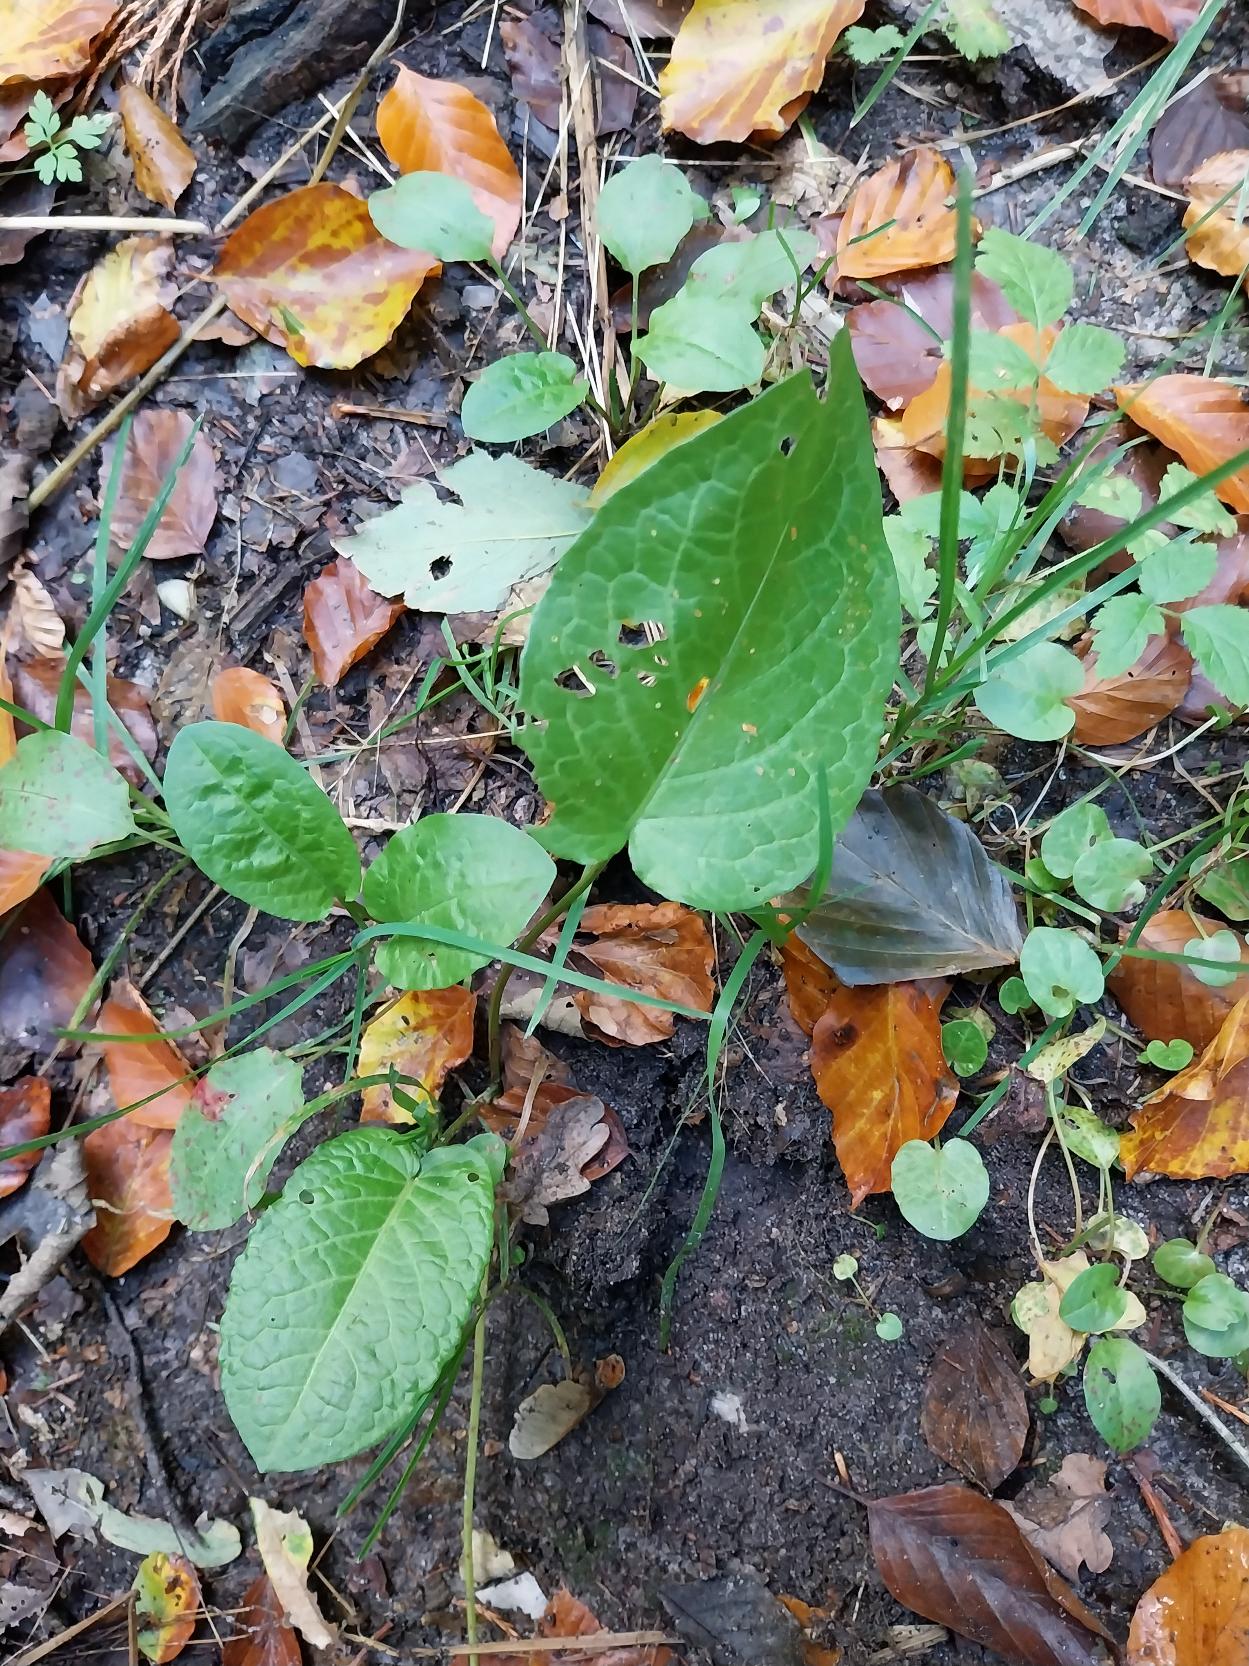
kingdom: Plantae
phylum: Tracheophyta
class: Magnoliopsida
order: Caryophyllales
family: Polygonaceae
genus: Rumex
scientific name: Rumex obtusifolius
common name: Butbladet skræppe
